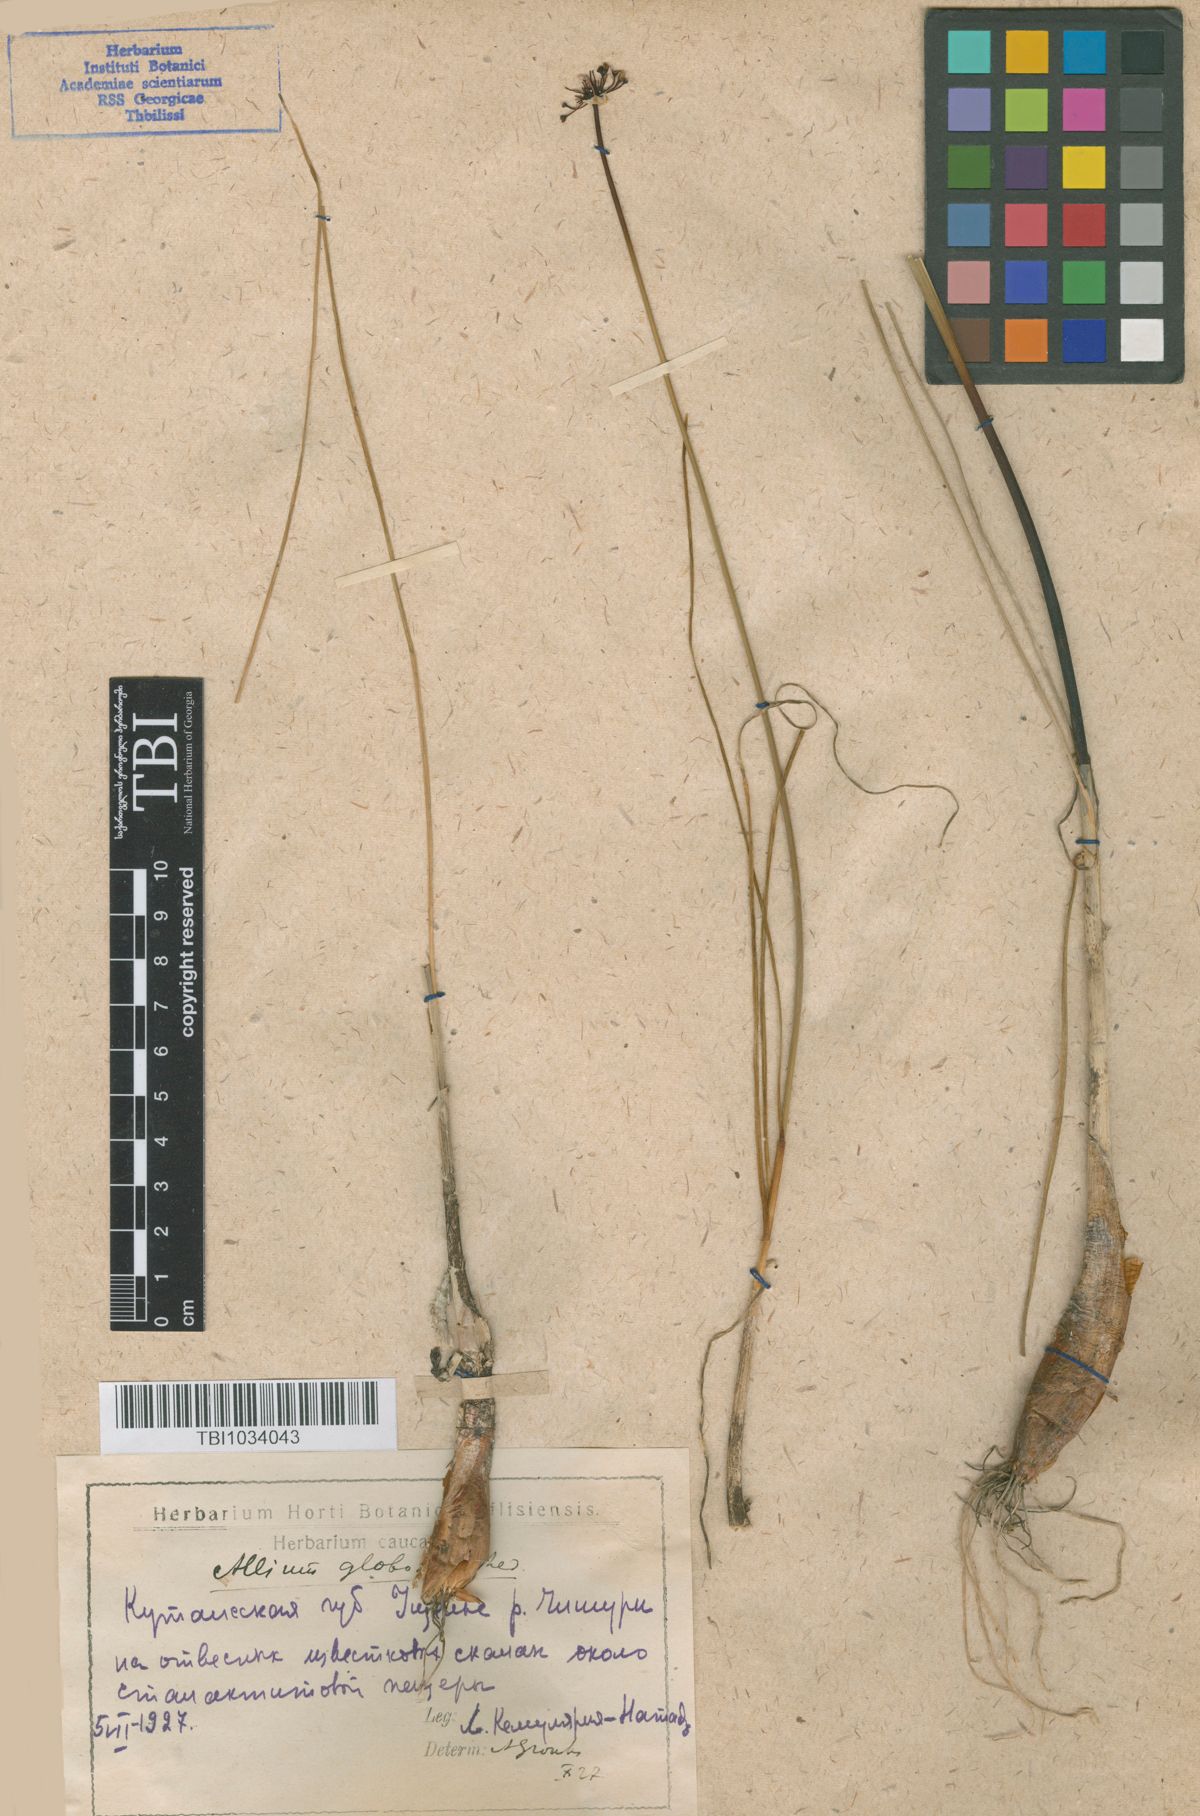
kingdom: Plantae
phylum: Tracheophyta
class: Liliopsida
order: Asparagales
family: Amaryllidaceae
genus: Allium
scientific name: Allium saxatile
